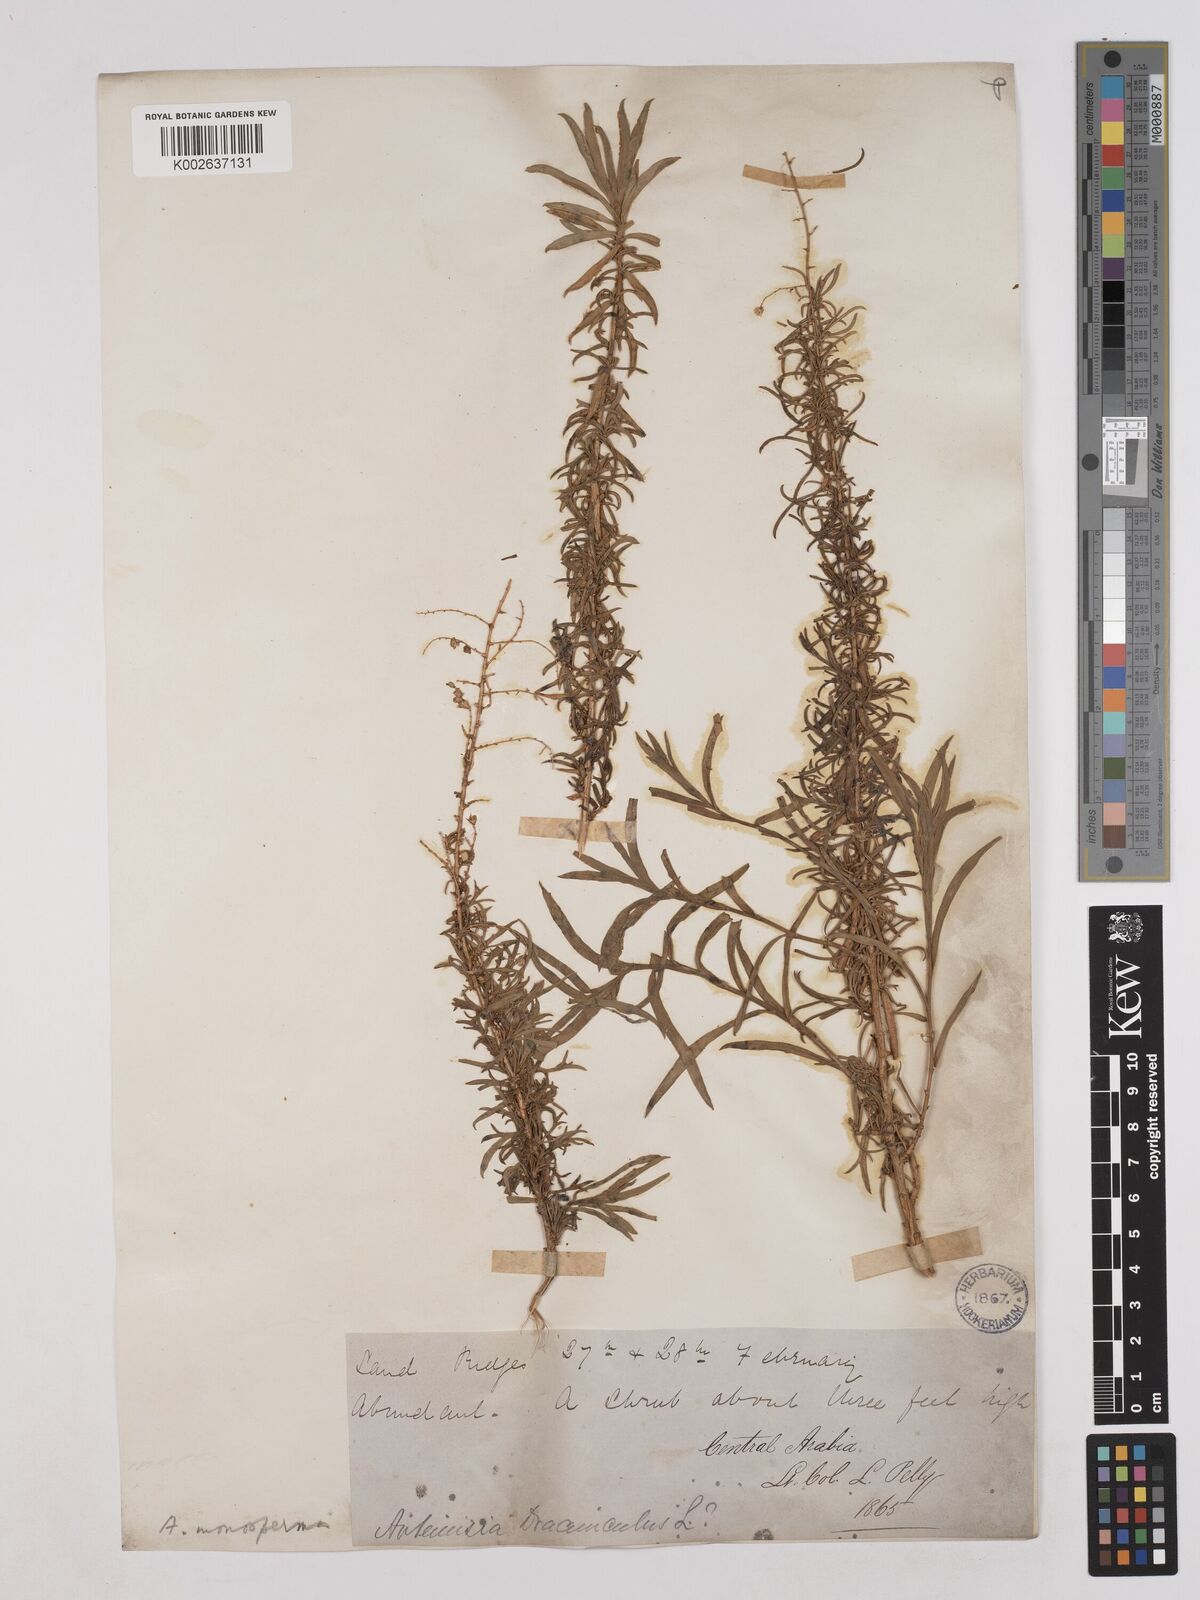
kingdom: Plantae
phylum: Tracheophyta
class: Magnoliopsida
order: Asterales
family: Asteraceae
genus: Artemisia
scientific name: Artemisia monosperma
